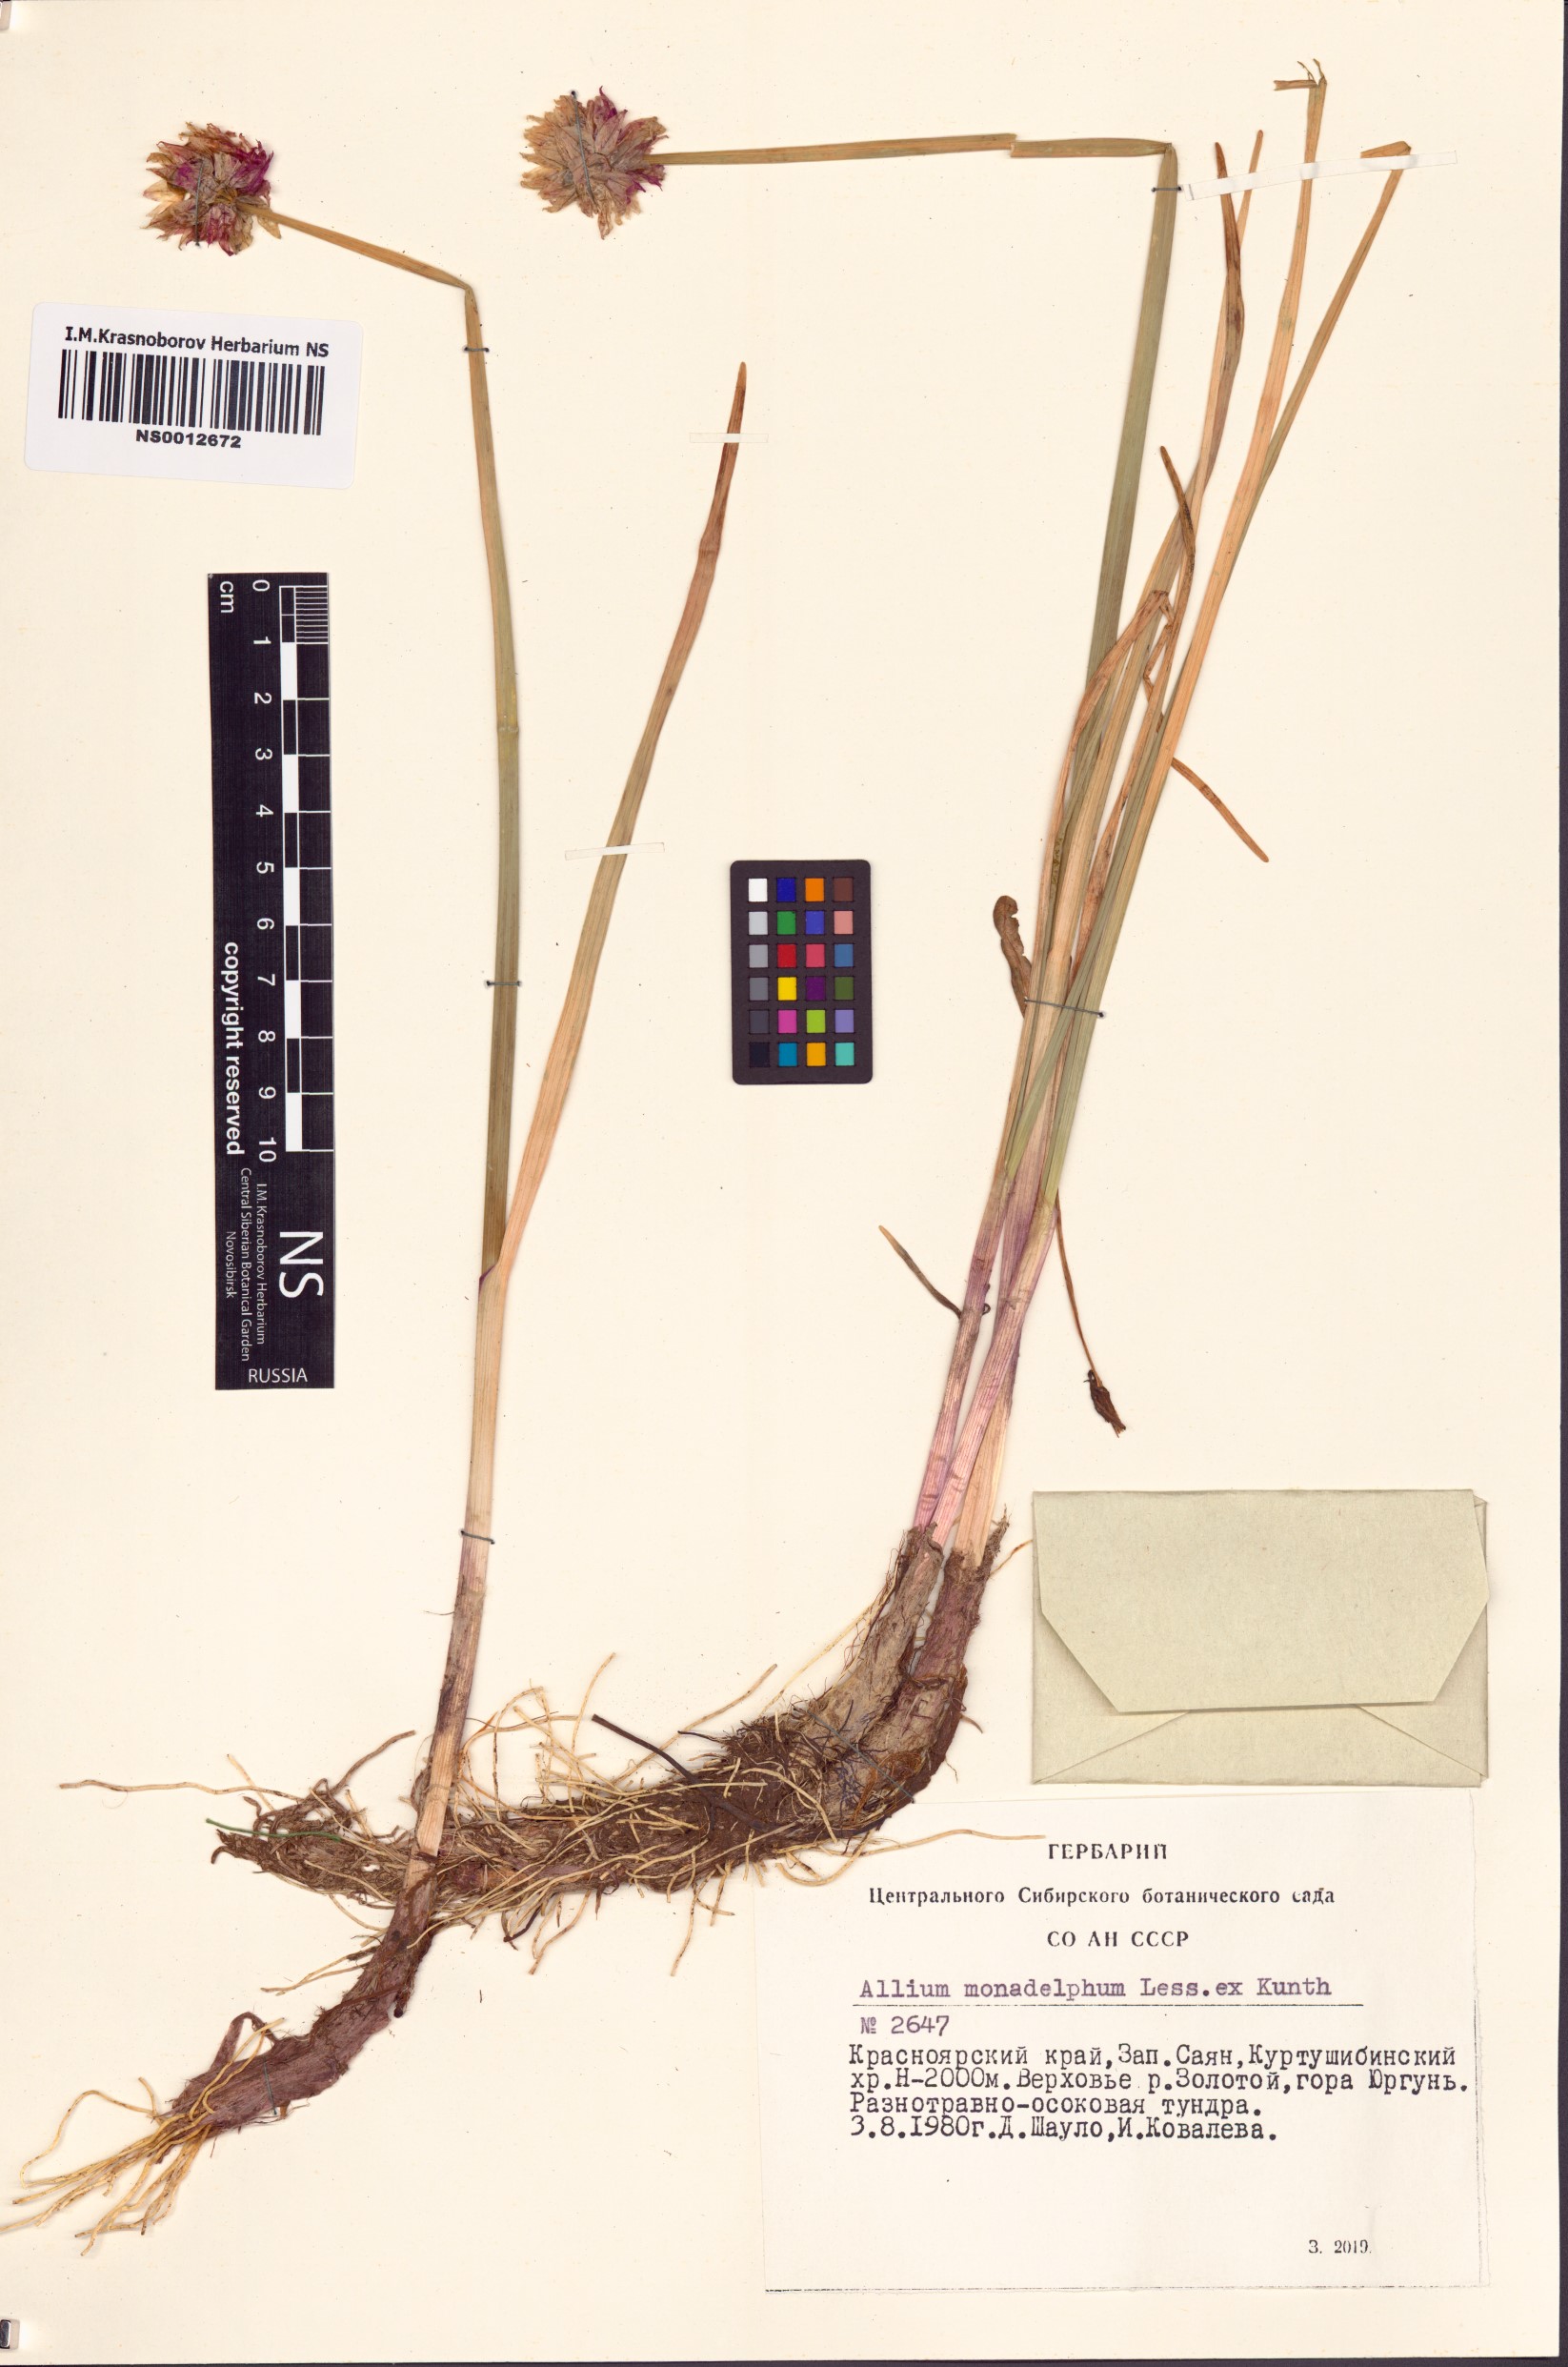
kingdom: Plantae
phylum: Tracheophyta
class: Liliopsida
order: Asparagales
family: Amaryllidaceae
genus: Allium
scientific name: Allium atrosanguineum
